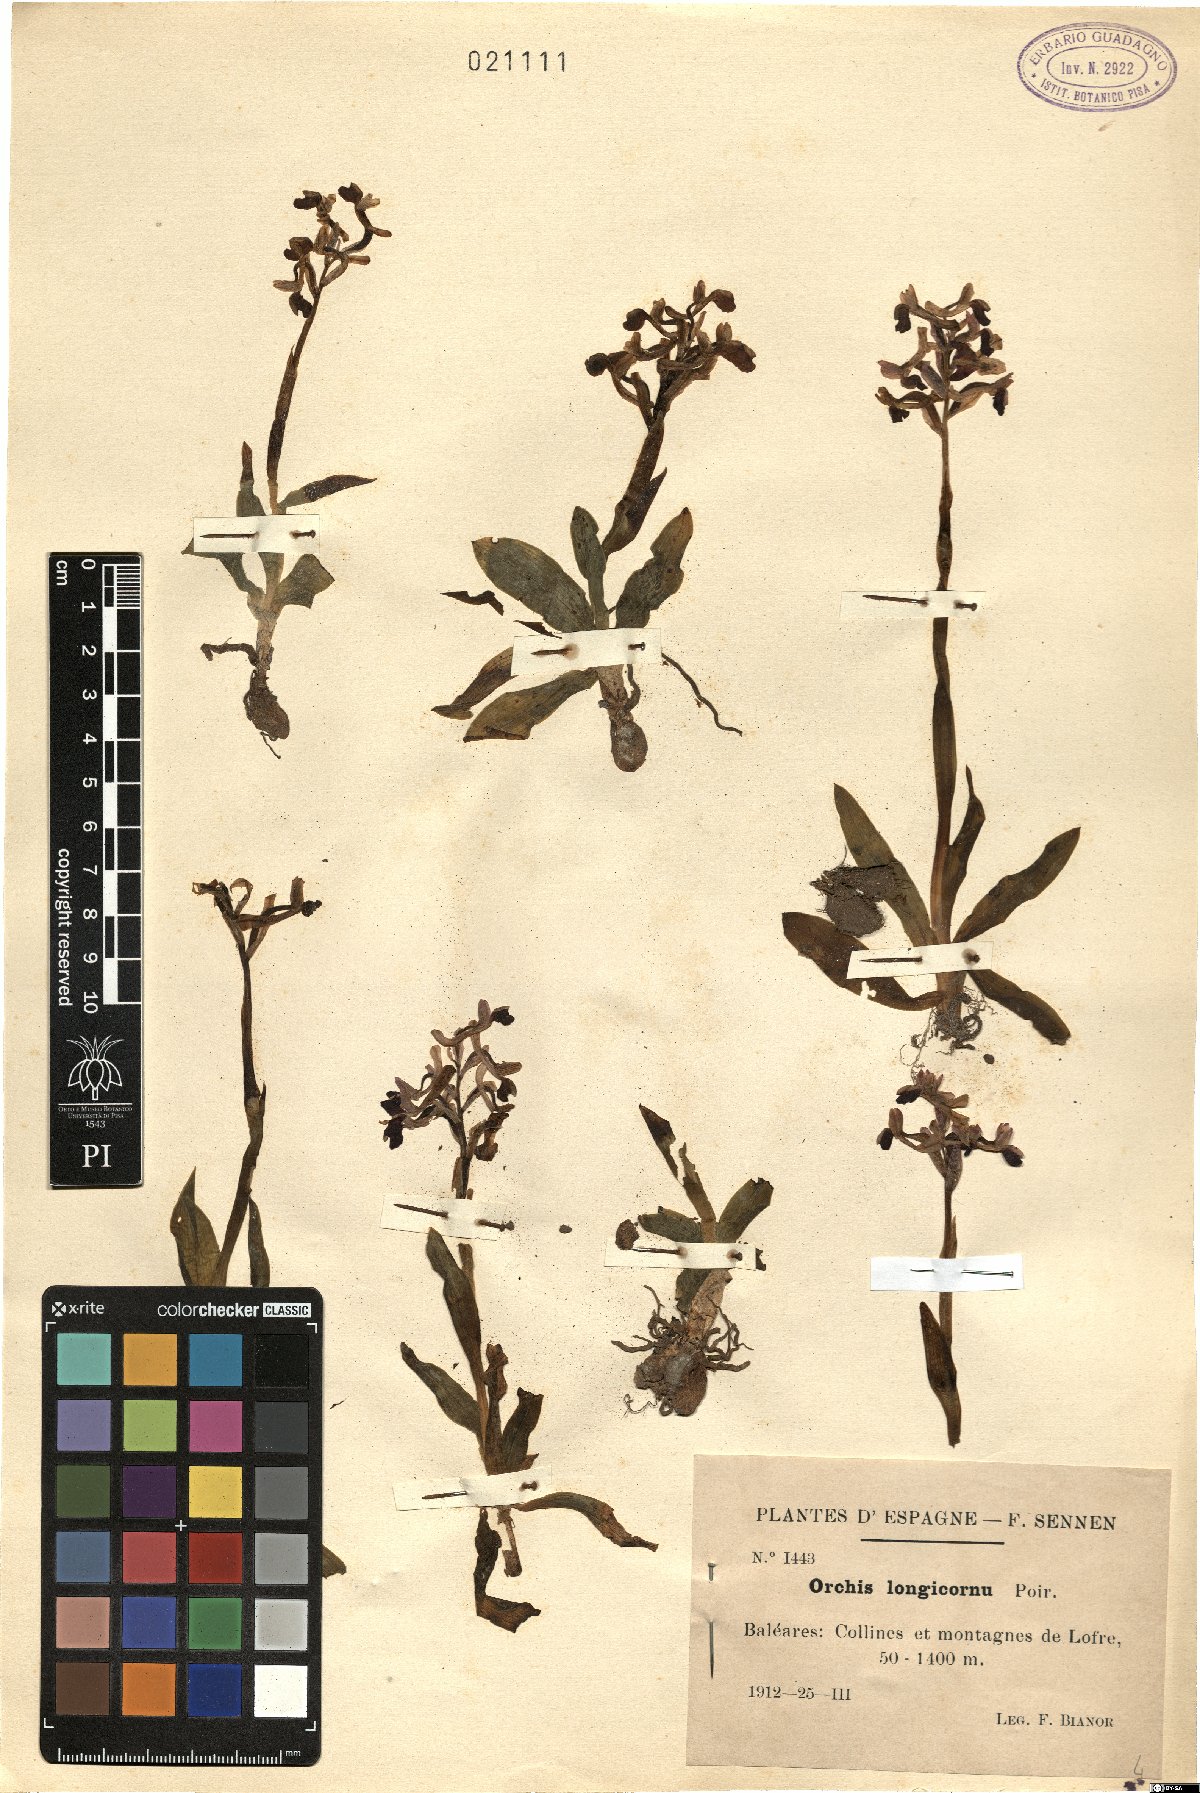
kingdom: Plantae
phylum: Tracheophyta
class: Liliopsida
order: Asparagales
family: Orchidaceae
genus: Anacamptis
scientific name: Anacamptis morio
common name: Green-winged orchid
